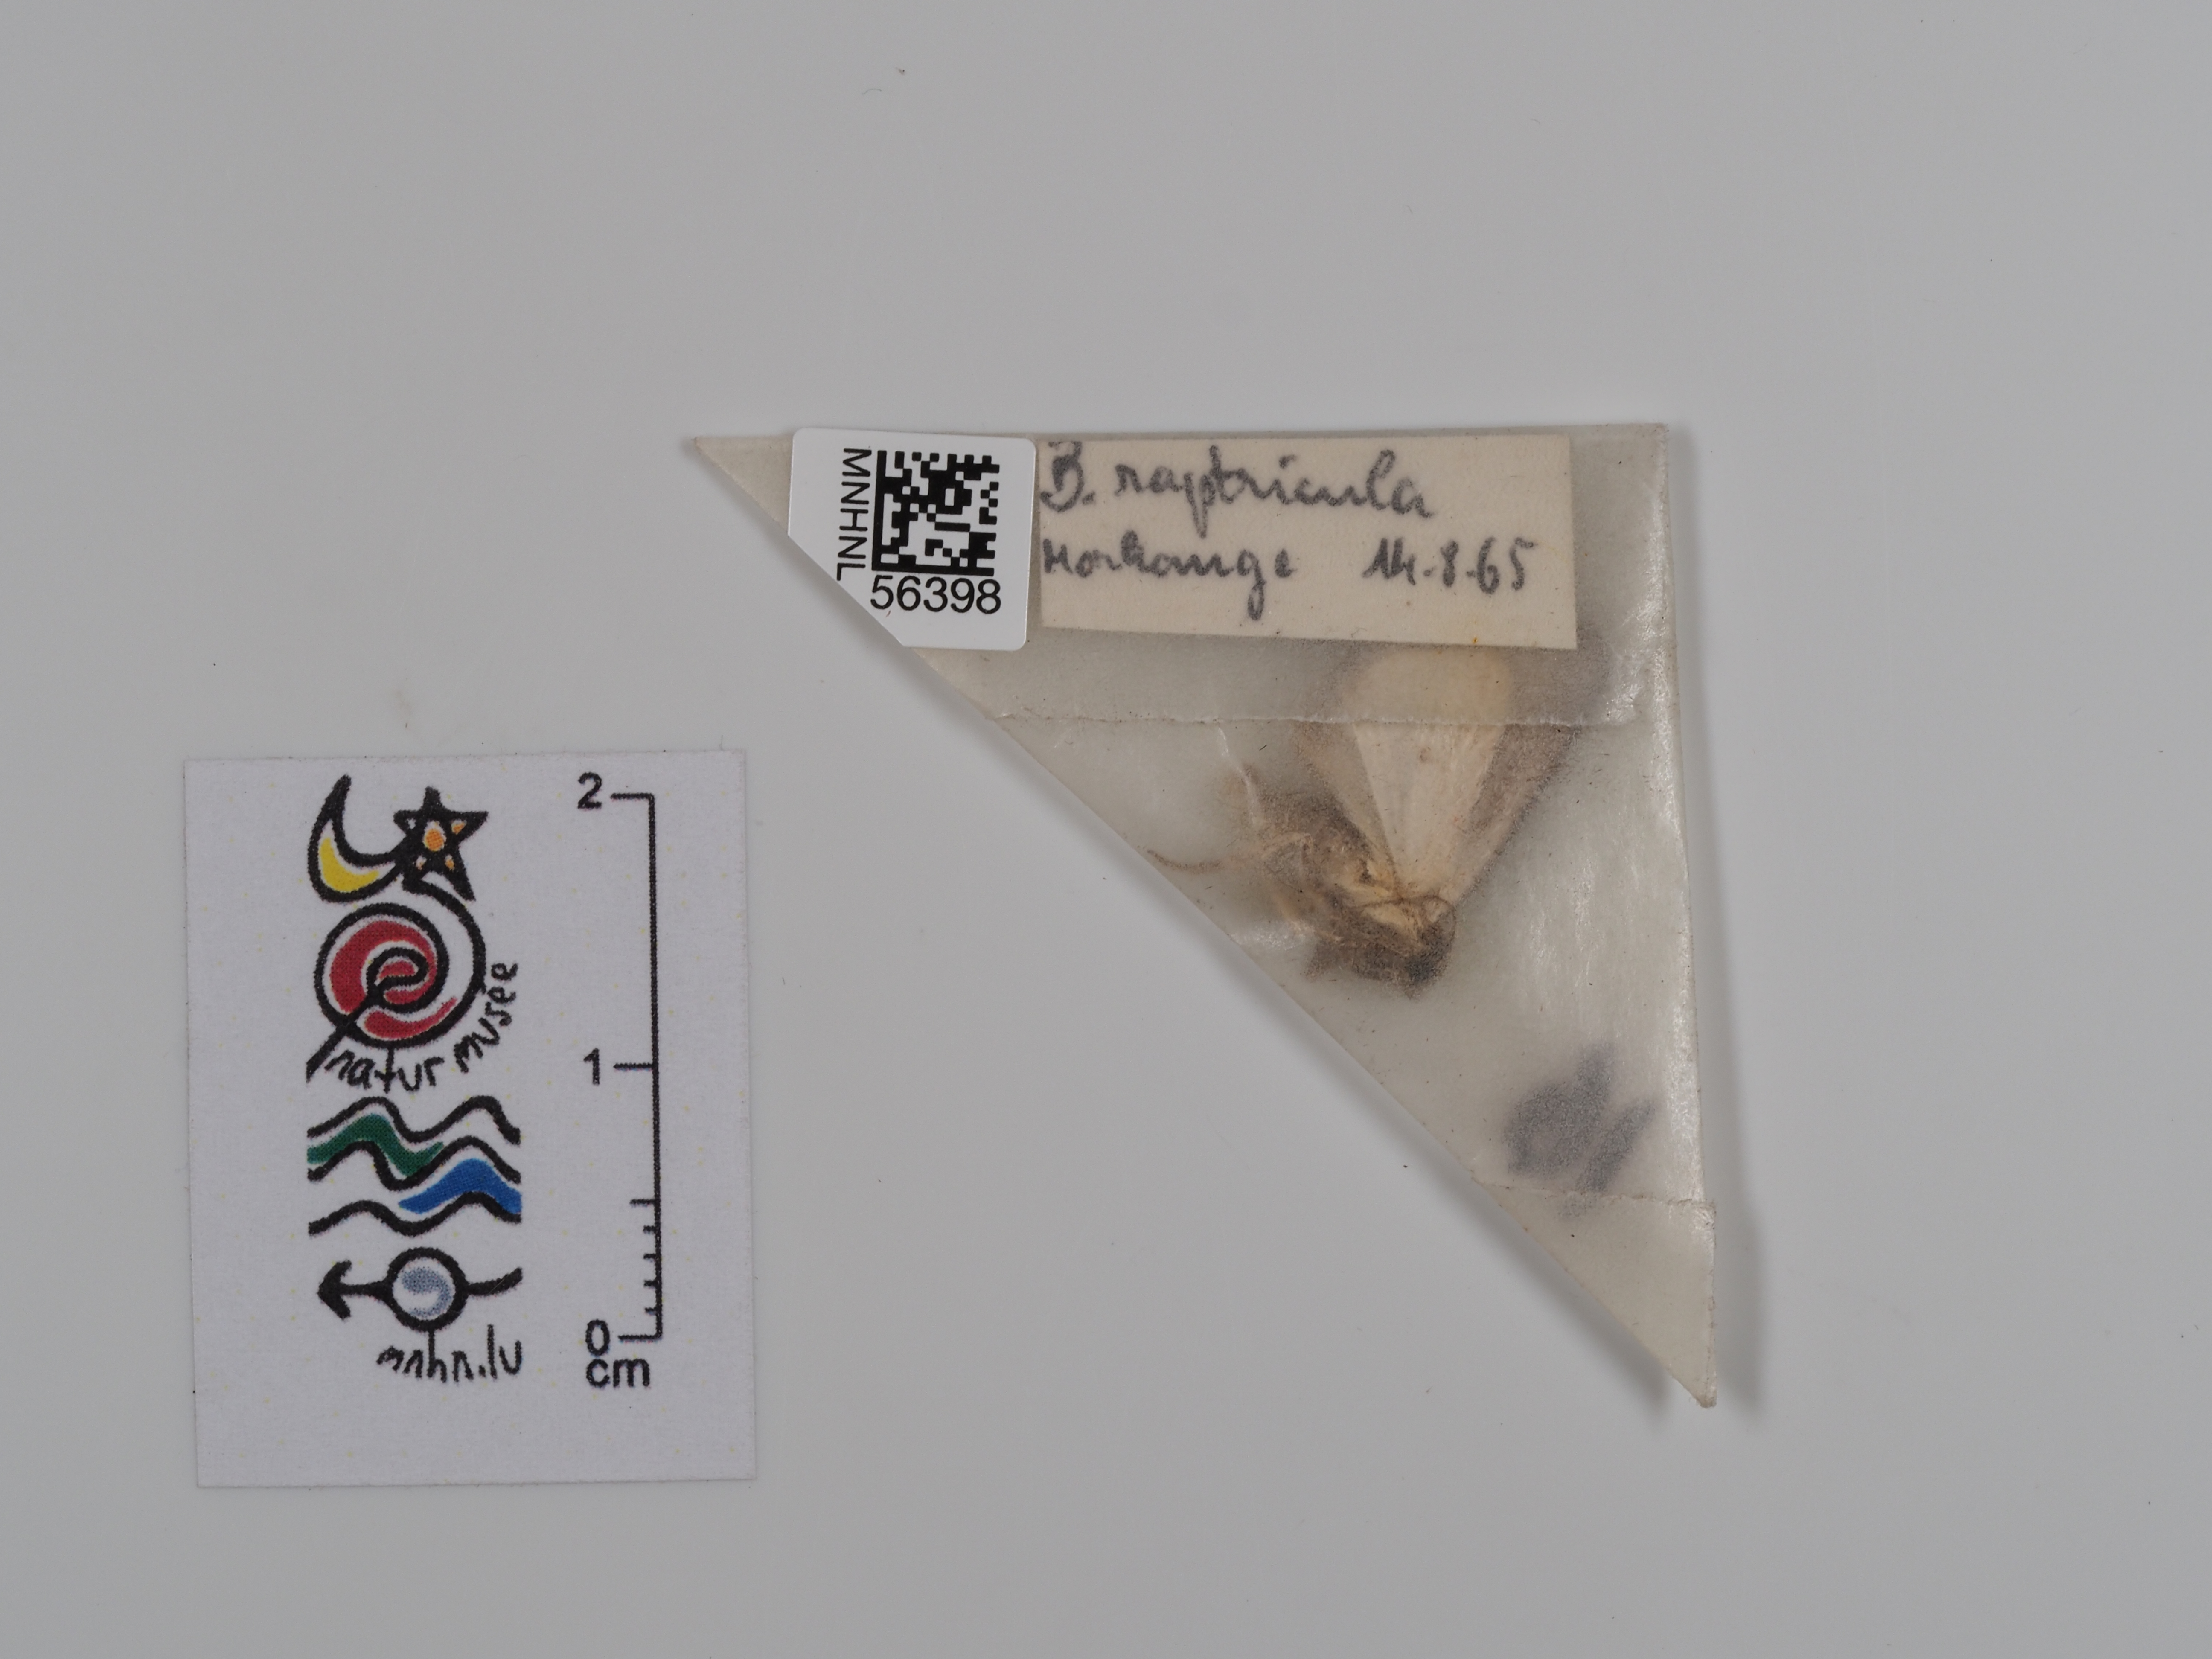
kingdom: Animalia
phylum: Arthropoda
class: Insecta
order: Lepidoptera
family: Noctuidae
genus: Bryophila
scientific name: Bryophila raptricula
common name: Marbled grey
